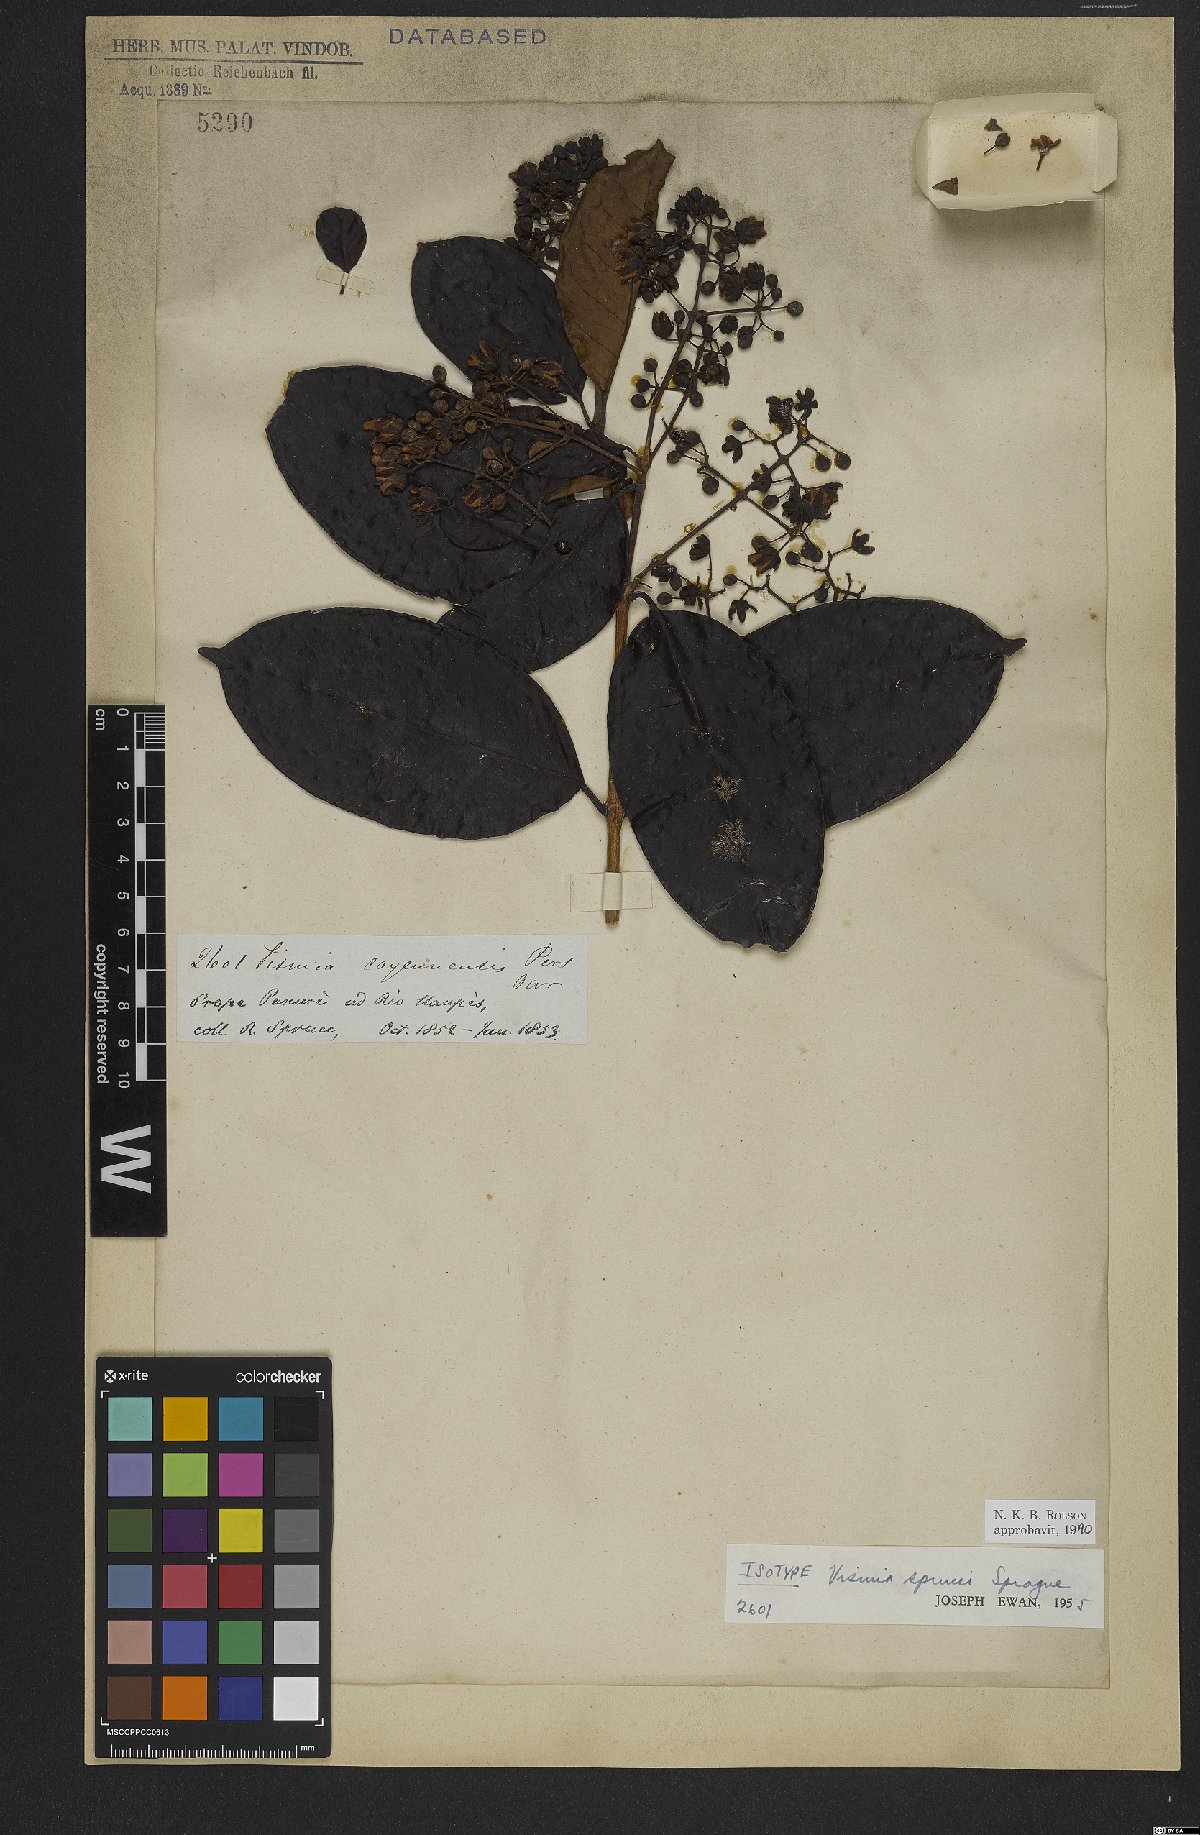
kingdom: Plantae
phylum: Tracheophyta
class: Magnoliopsida
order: Malpighiales
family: Hypericaceae
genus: Vismia
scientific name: Vismia sprucei
